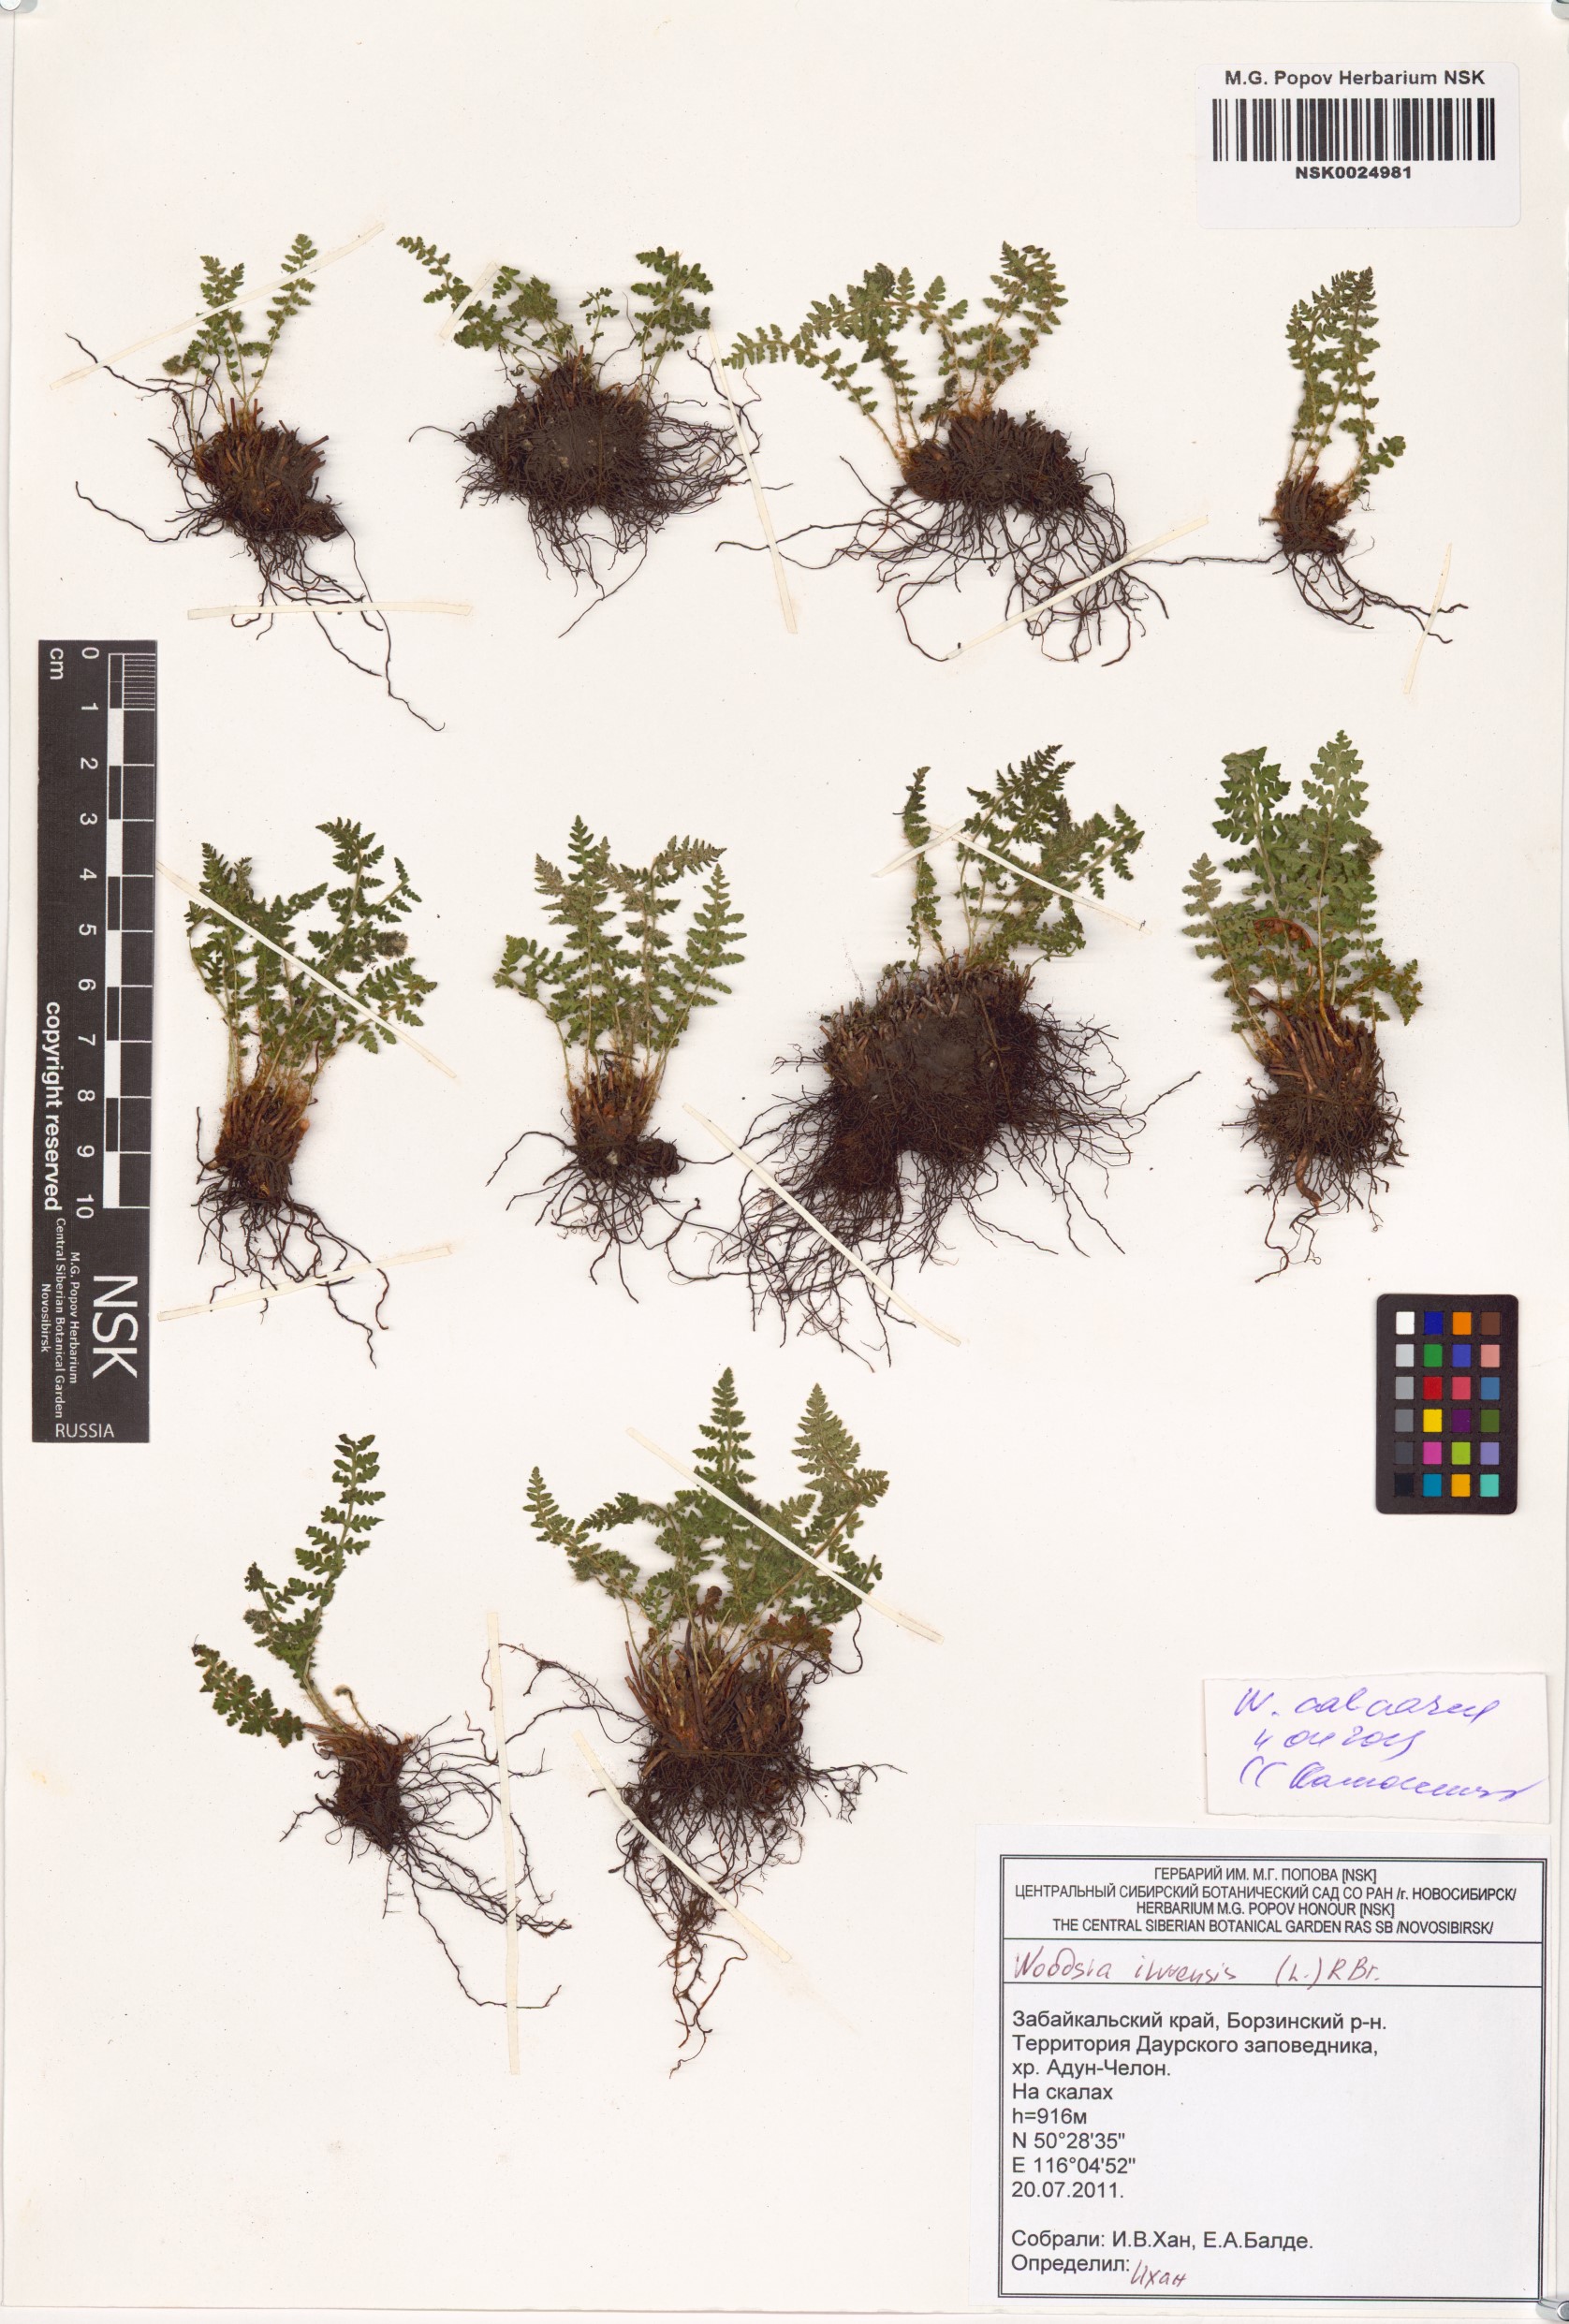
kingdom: Plantae
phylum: Tracheophyta
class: Polypodiopsida
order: Polypodiales
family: Woodsiaceae
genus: Woodsia
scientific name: Woodsia calcarea
